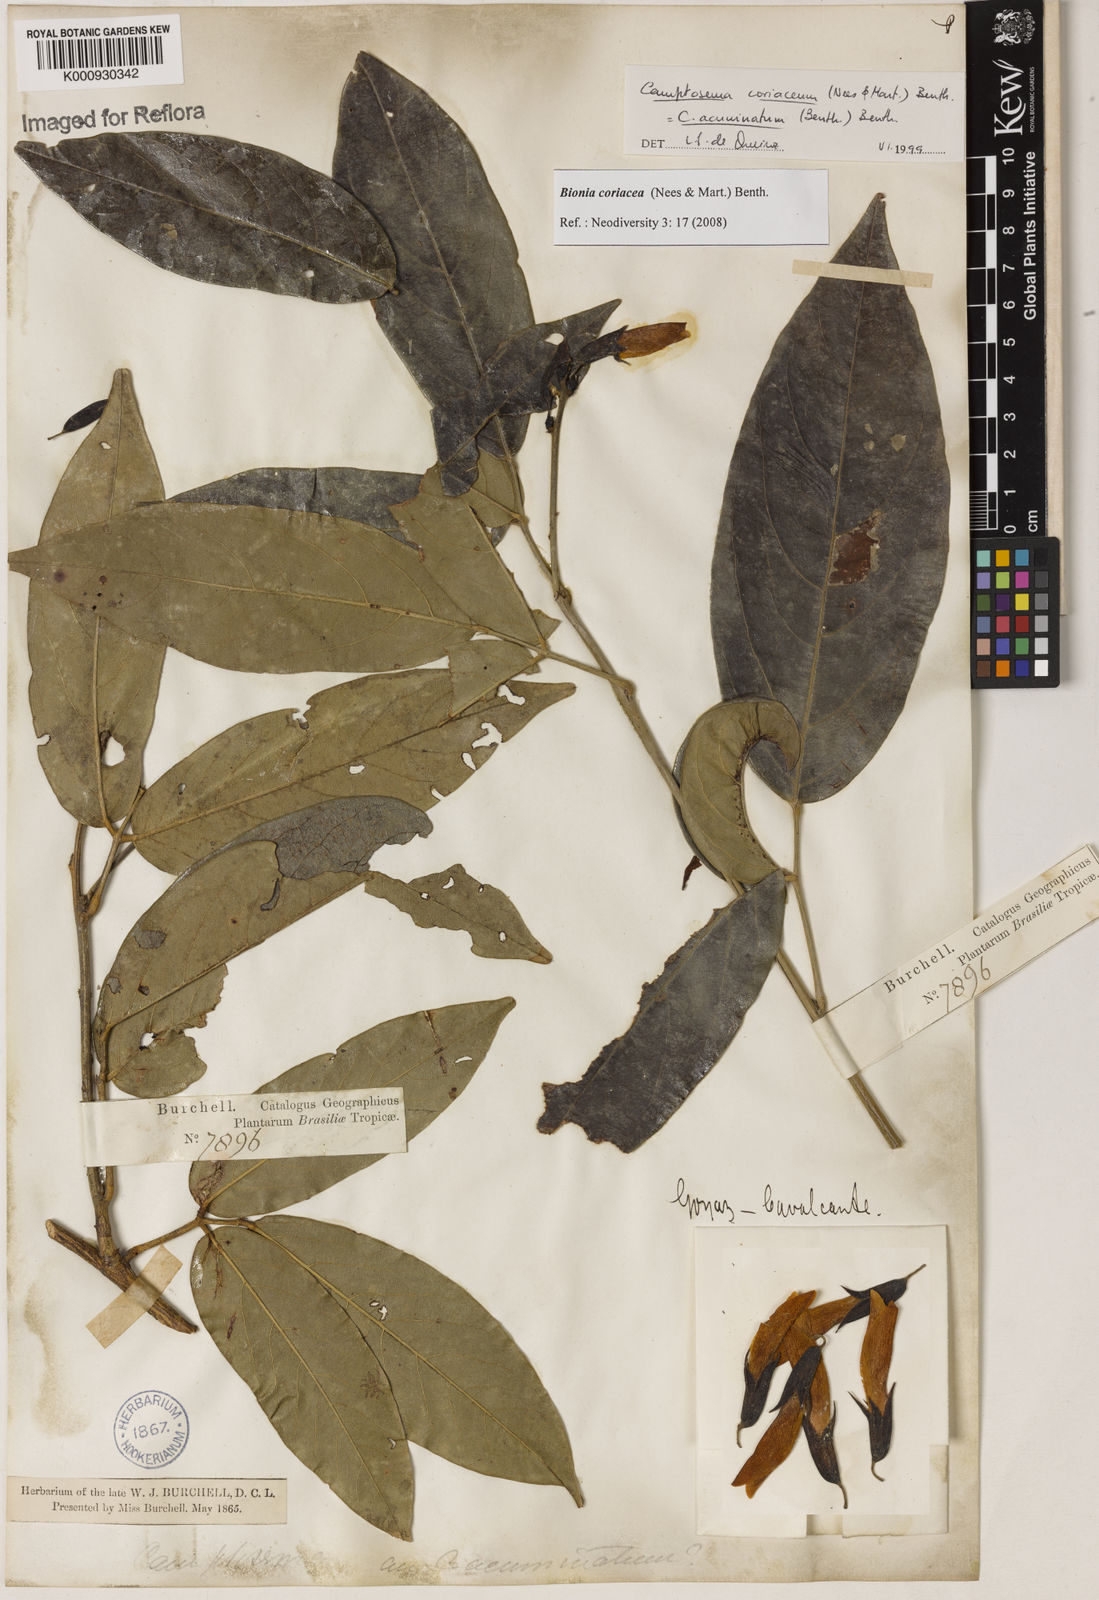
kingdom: Plantae
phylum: Tracheophyta
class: Magnoliopsida
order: Fabales
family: Fabaceae
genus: Camptosema
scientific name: Camptosema coriaceum
